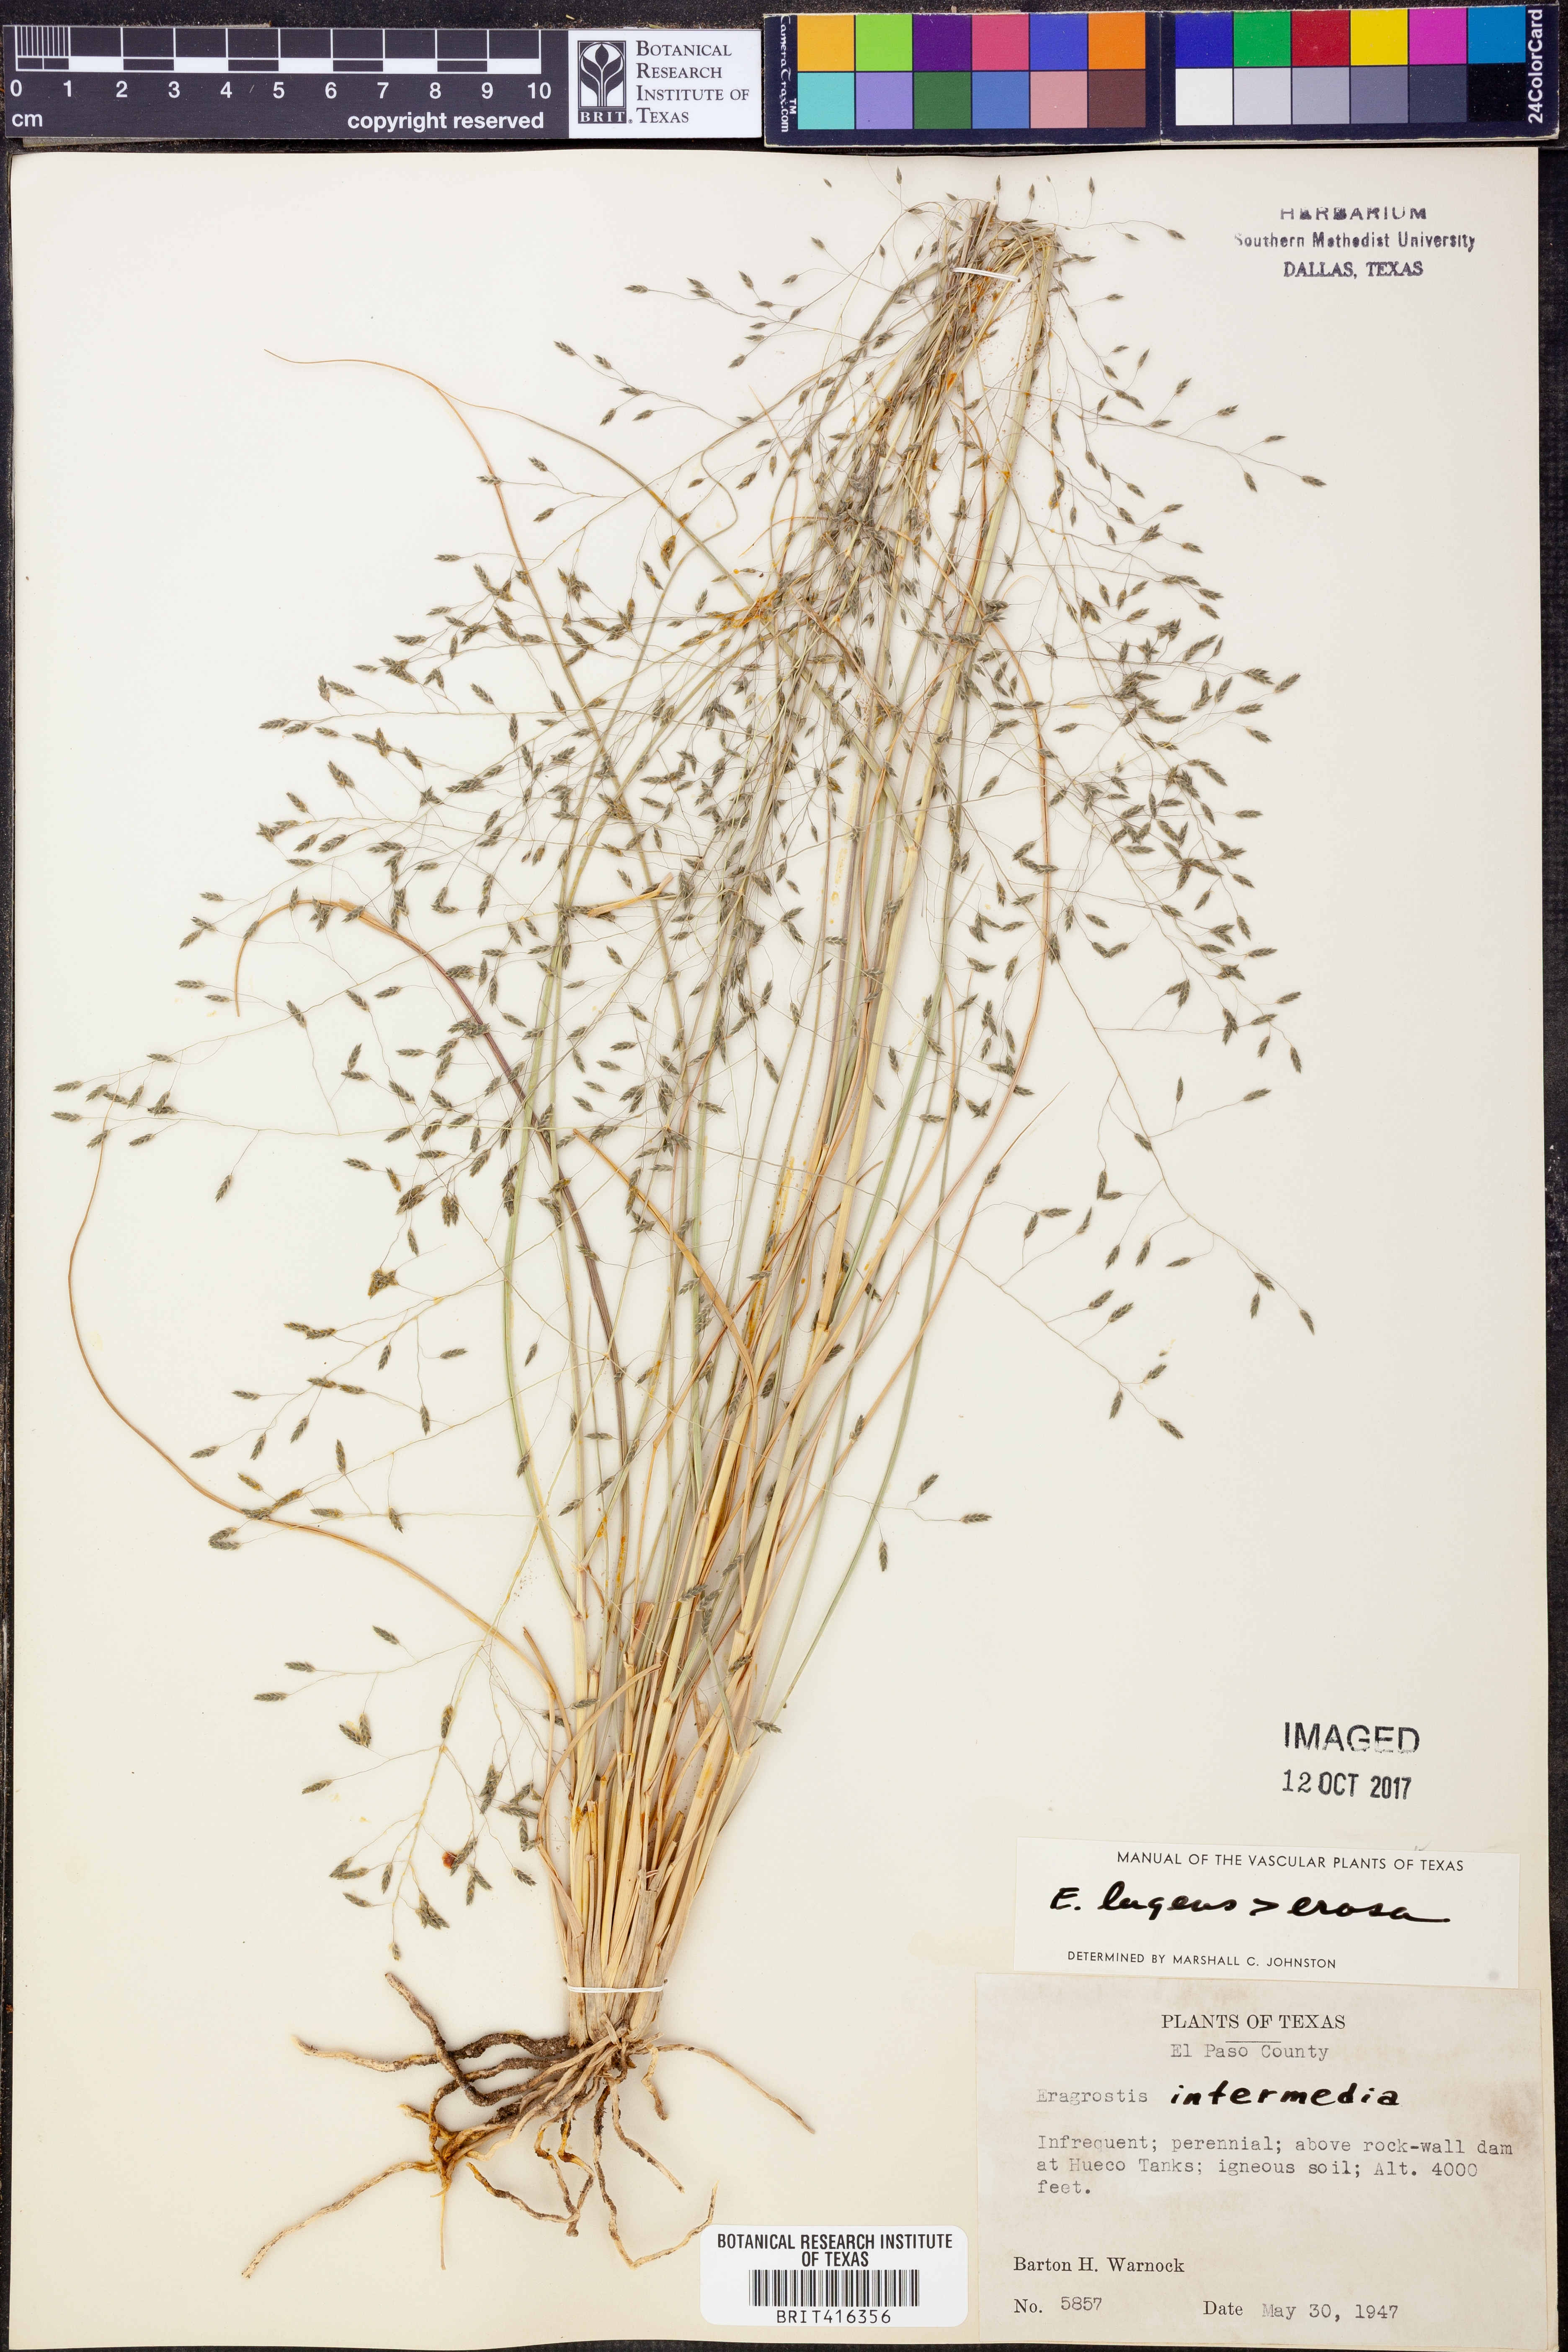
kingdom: Plantae
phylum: Tracheophyta
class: Liliopsida
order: Poales
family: Poaceae
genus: Eragrostis
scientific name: Eragrostis capillaris
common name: Hair-like lovegrass
